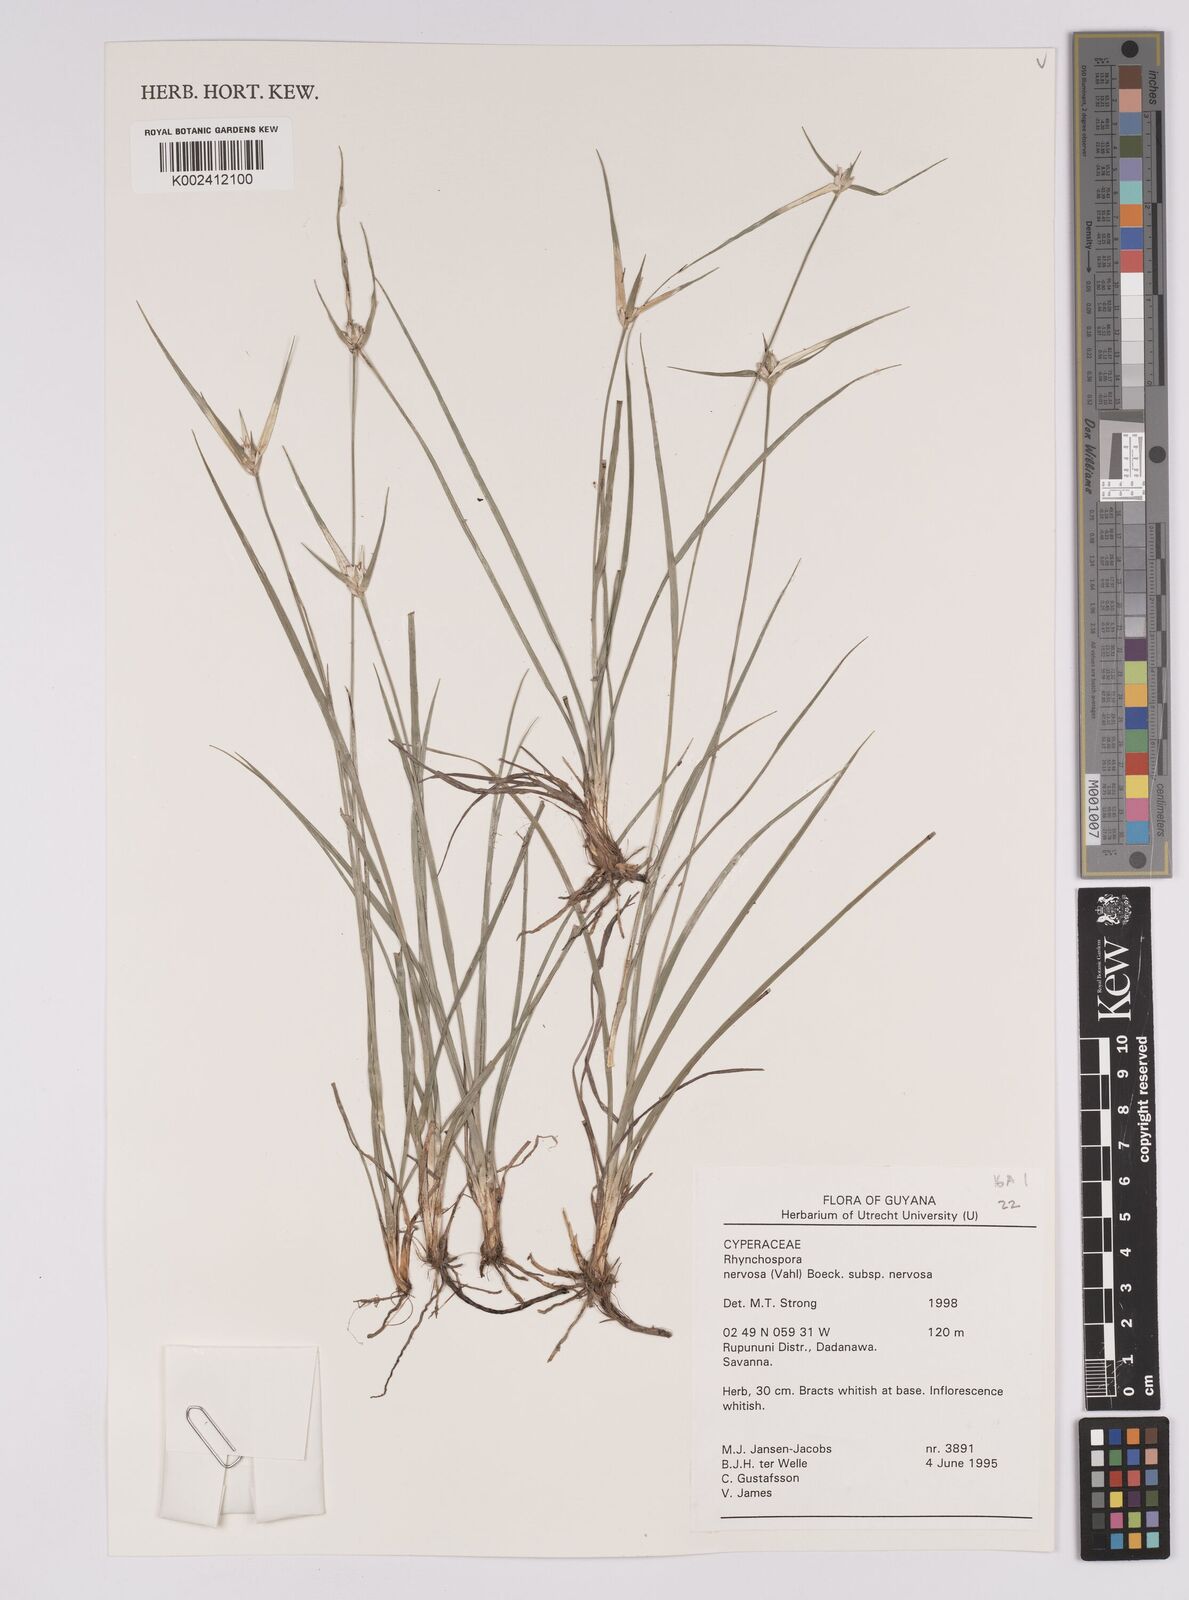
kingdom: Plantae
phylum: Tracheophyta
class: Liliopsida
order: Poales
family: Cyperaceae
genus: Rhynchospora
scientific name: Rhynchospora nervosa
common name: Star sedge
